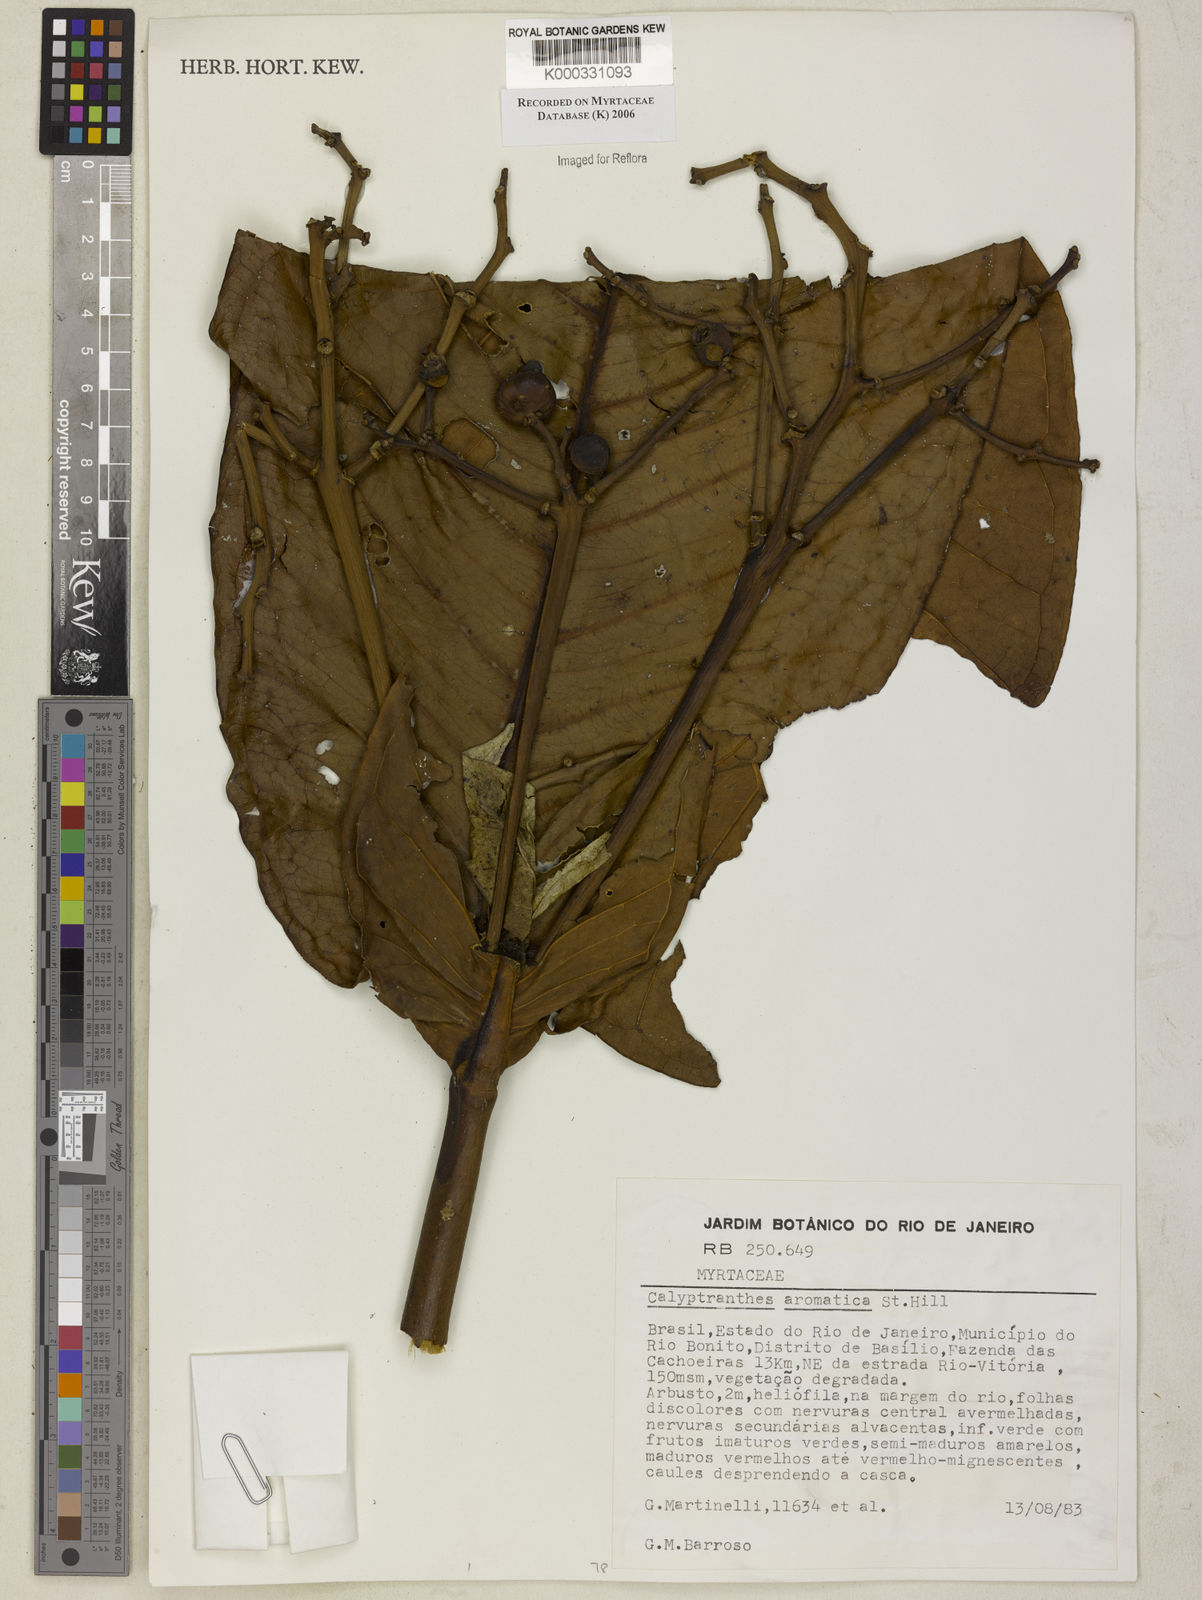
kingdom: Plantae
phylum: Tracheophyta
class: Magnoliopsida
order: Myrtales
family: Myrtaceae
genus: Myrcia
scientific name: Myrcia carioca
